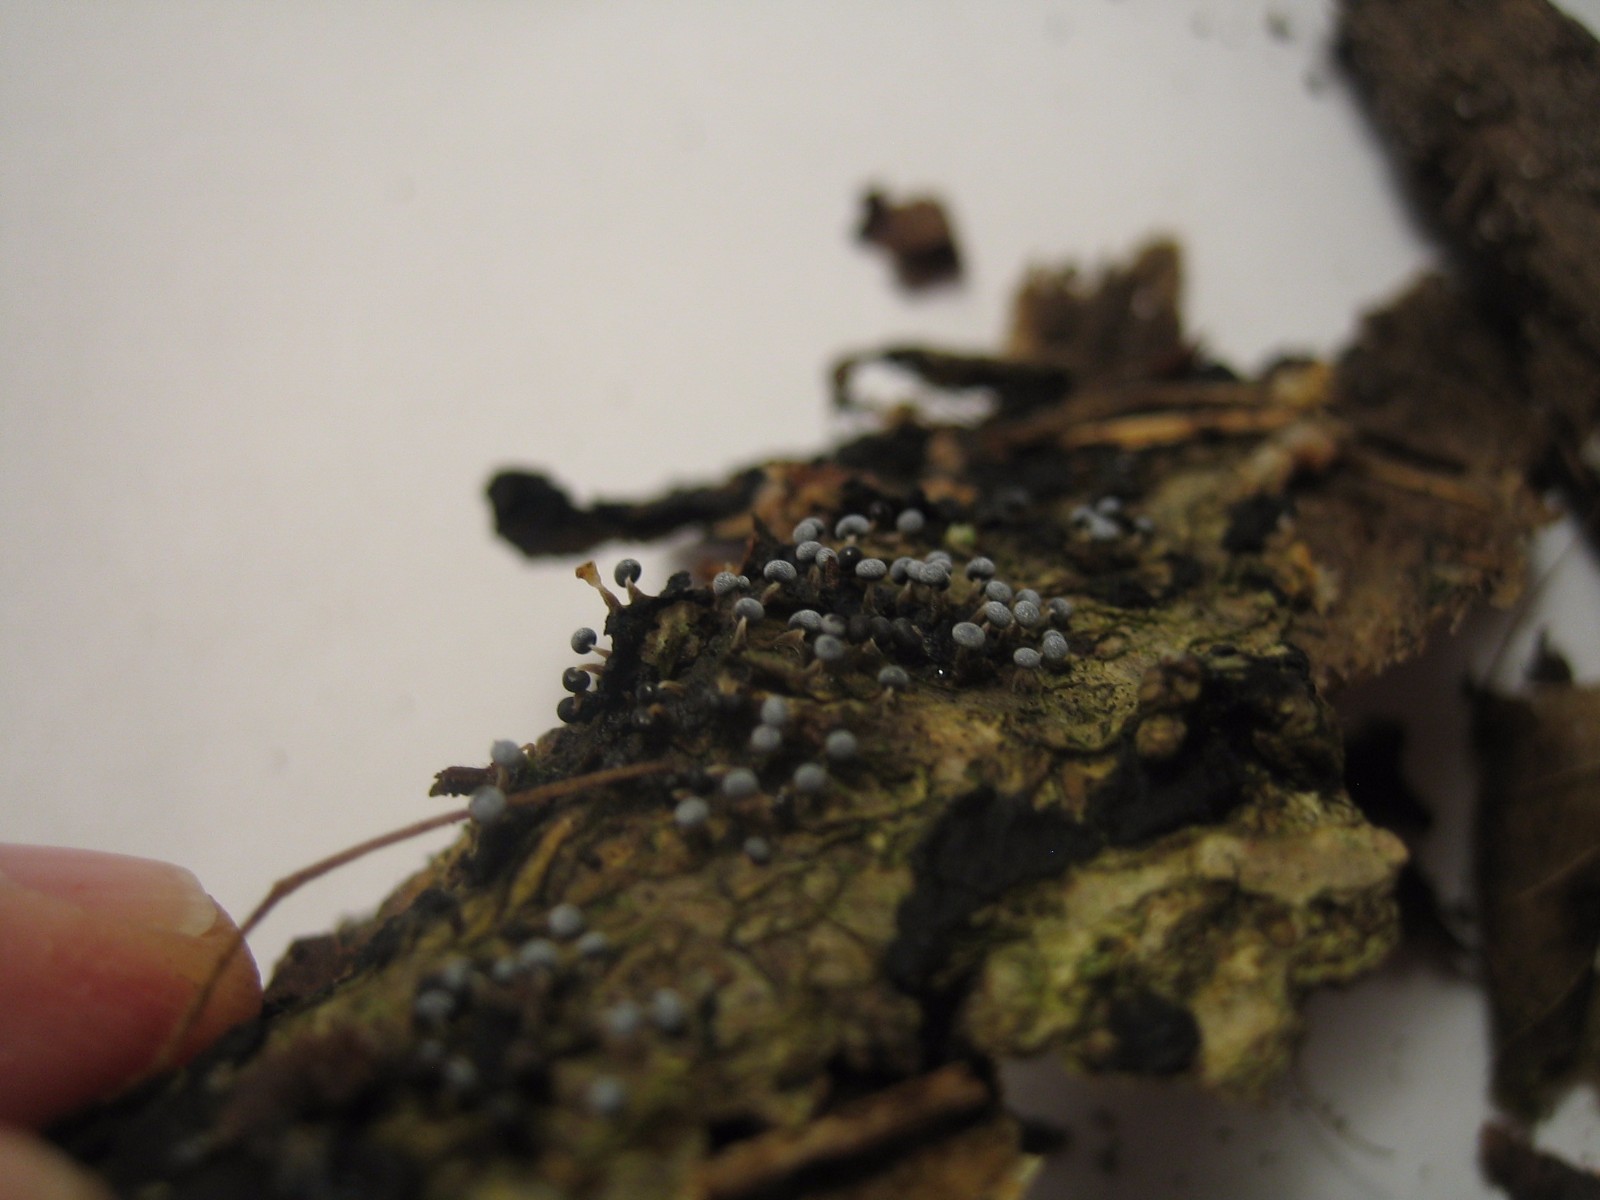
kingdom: Protozoa
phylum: Mycetozoa
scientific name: Mycetozoa
